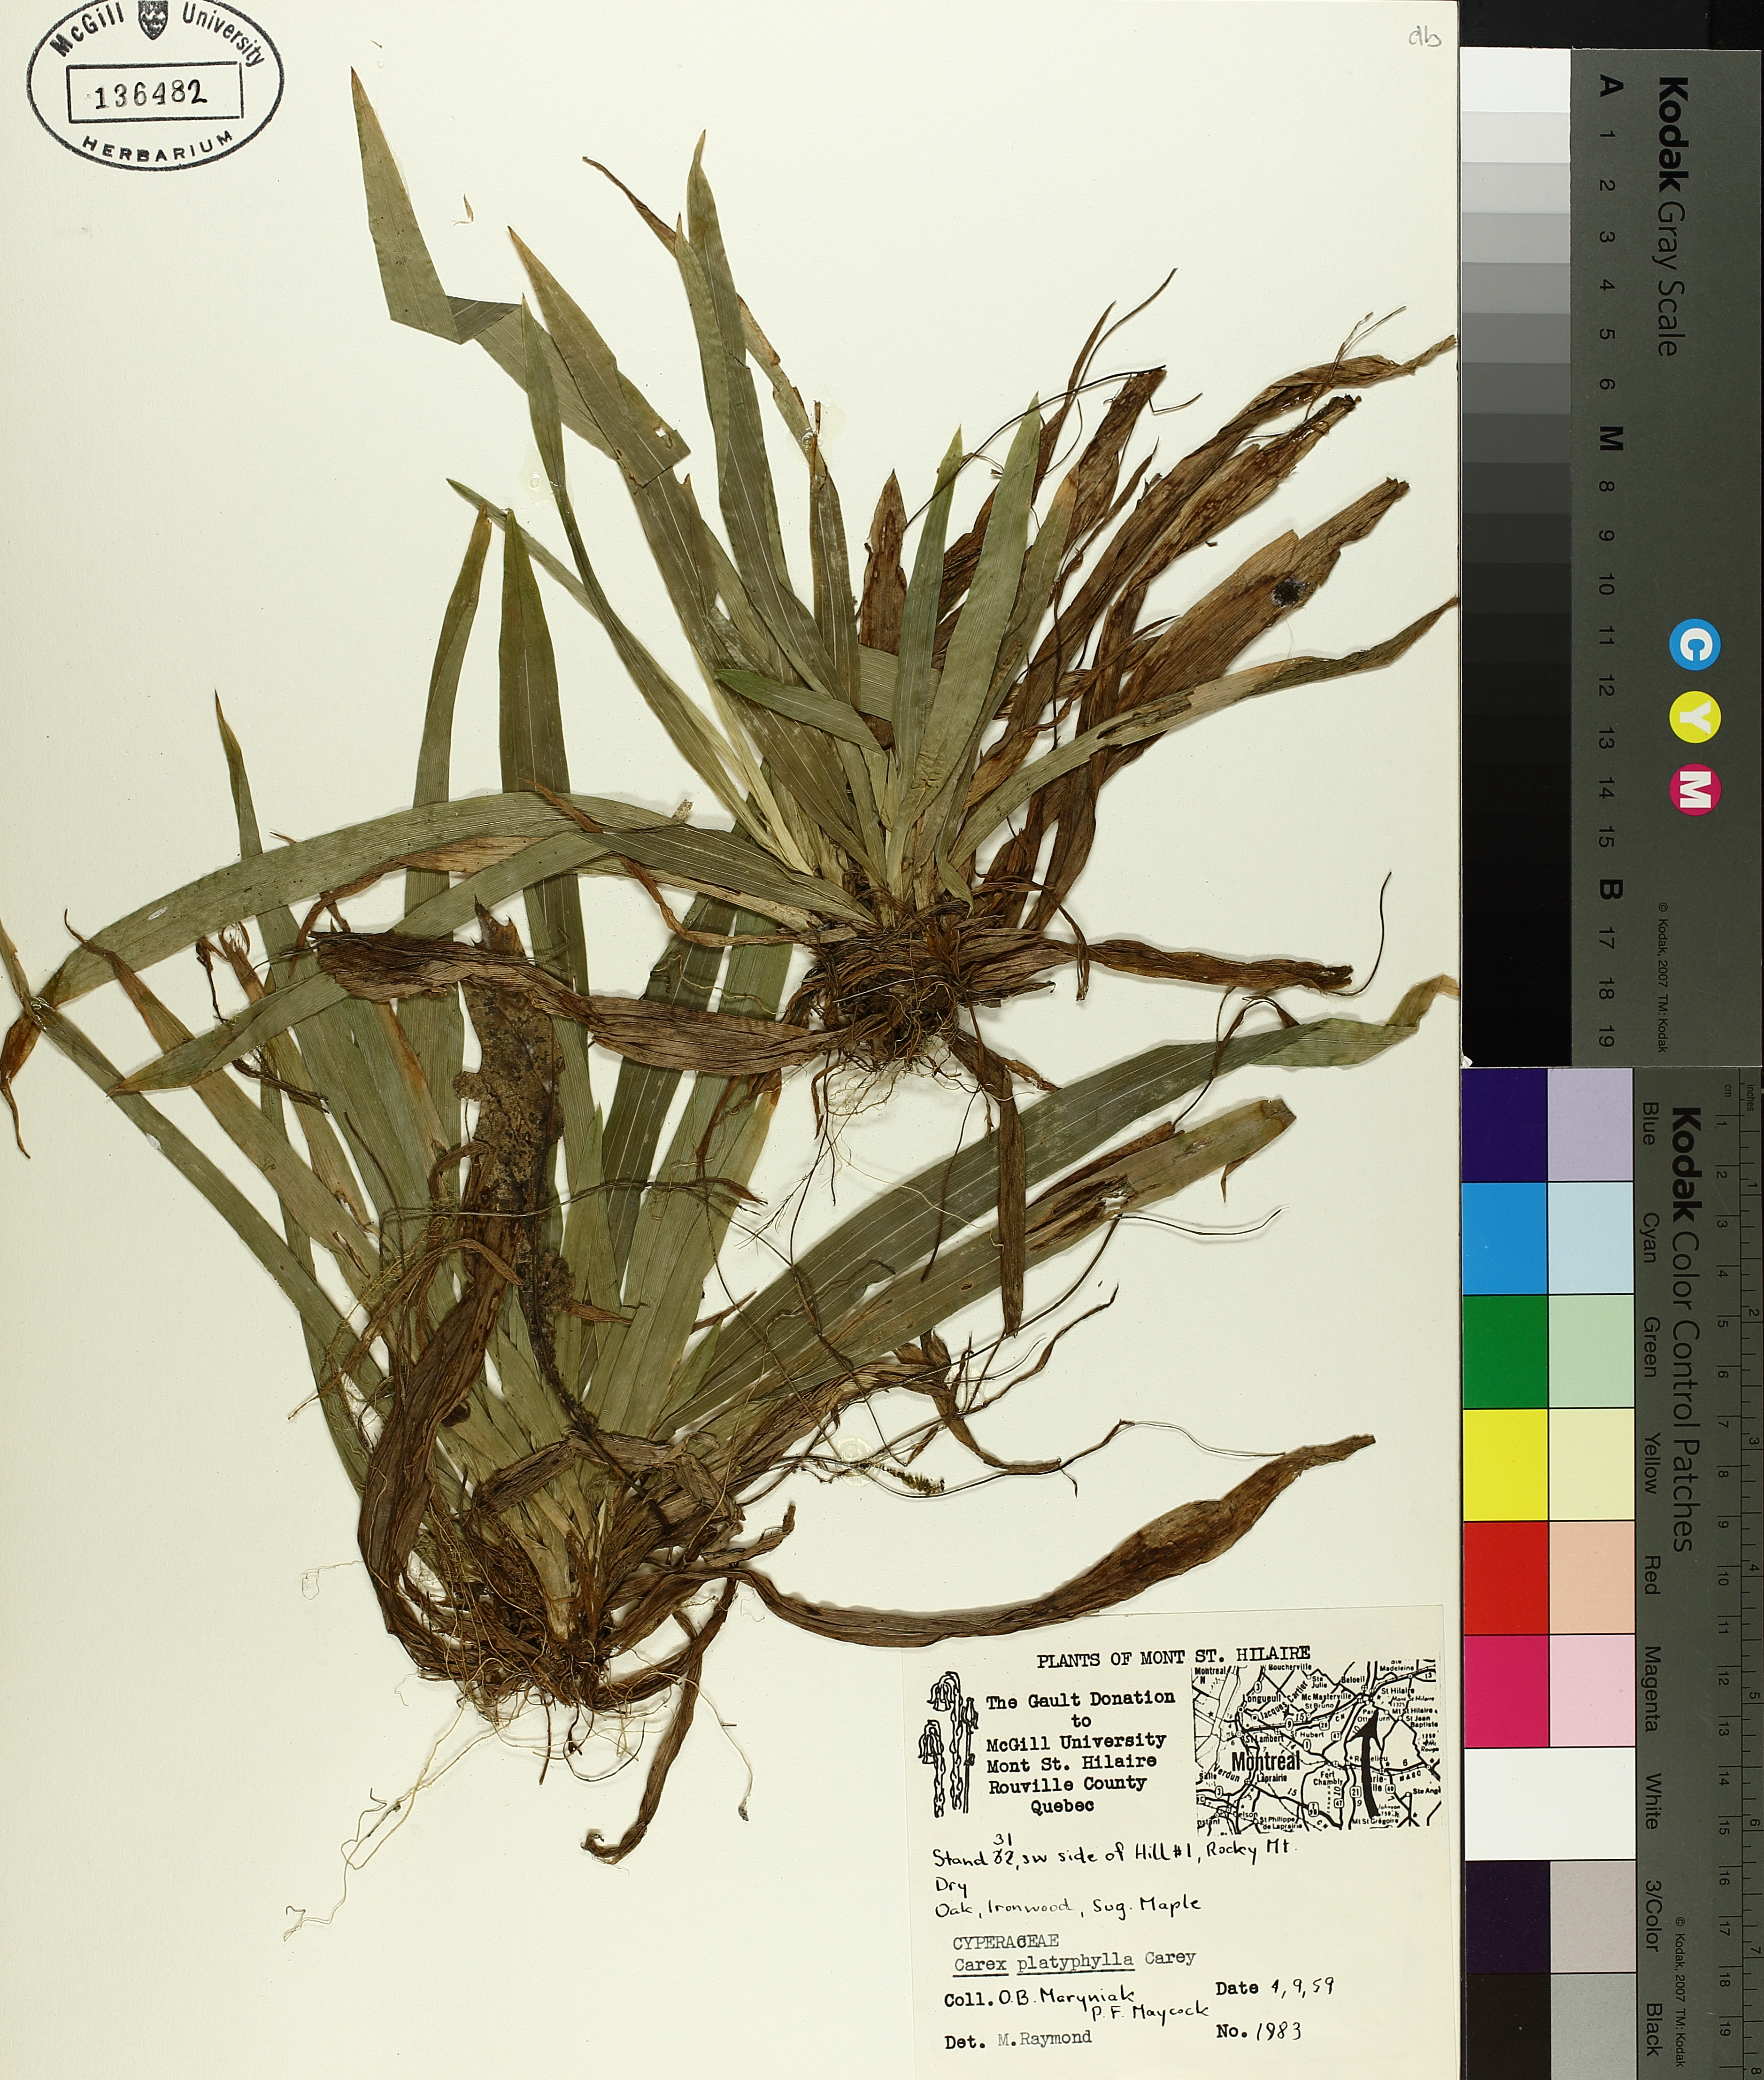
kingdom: Plantae
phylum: Tracheophyta
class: Liliopsida
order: Poales
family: Cyperaceae
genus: Carex
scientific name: Carex platyphylla
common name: Broad-leaved sedge
